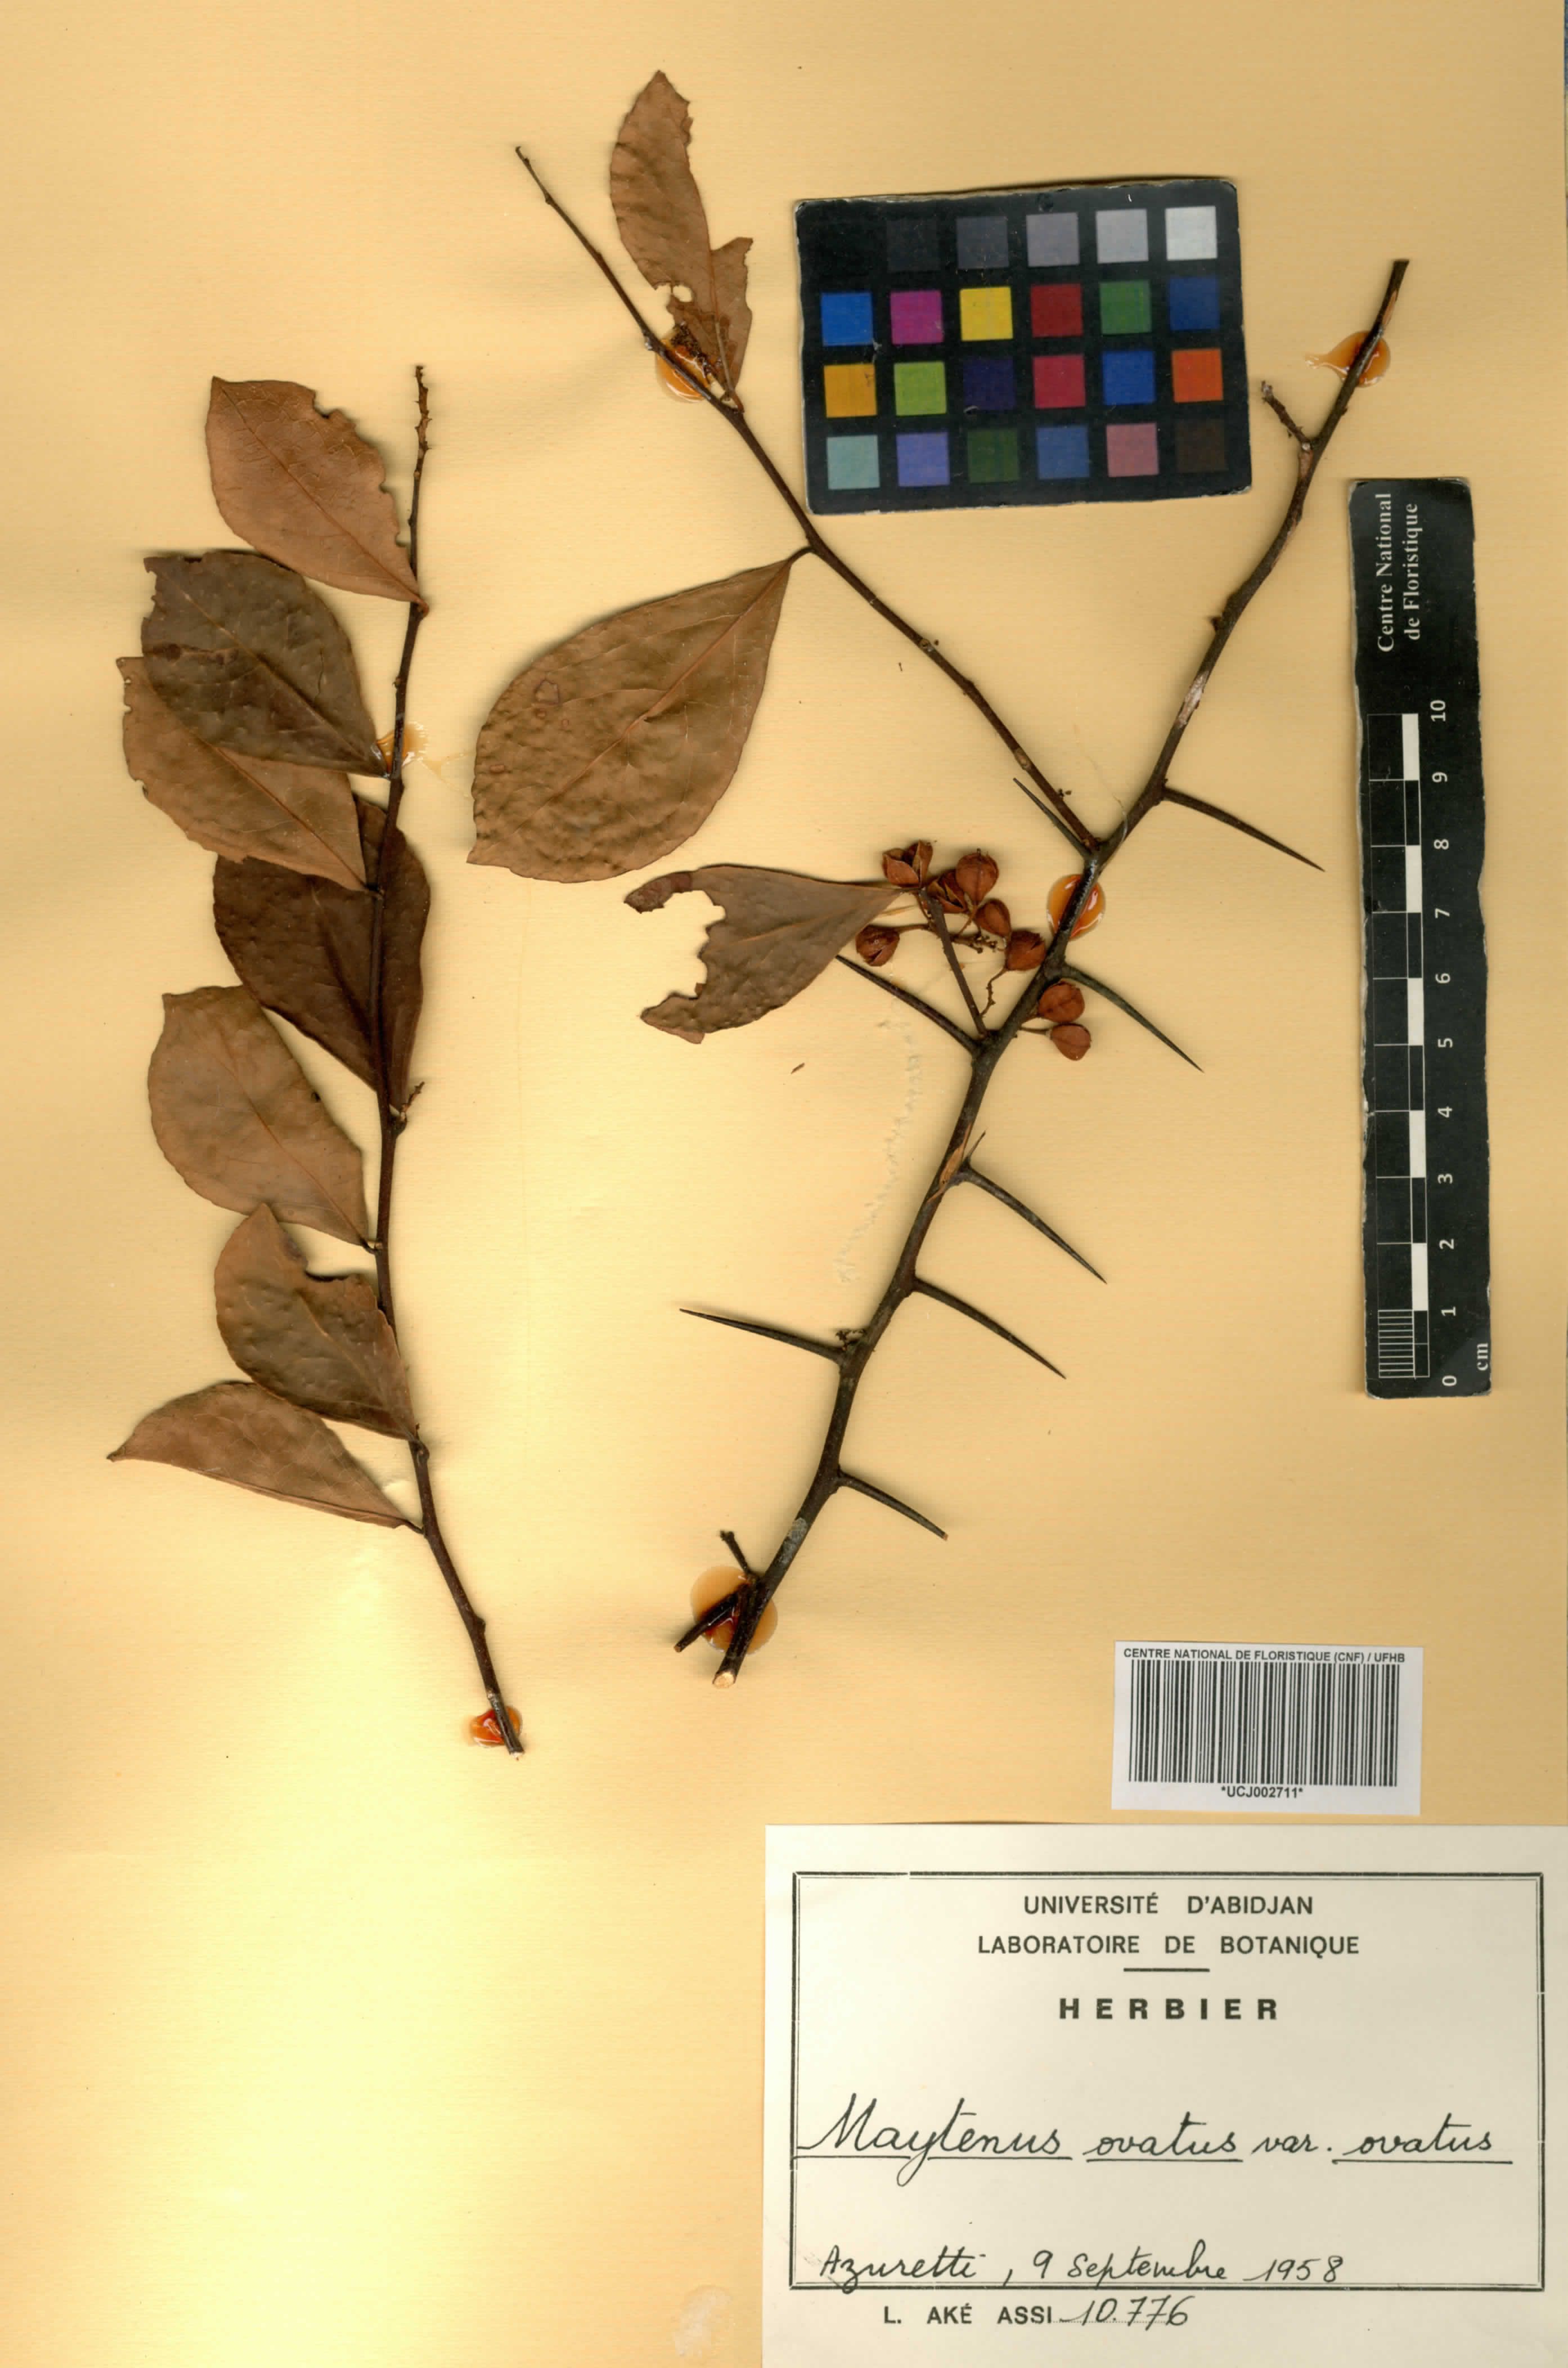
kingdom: Plantae
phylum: Tracheophyta
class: Magnoliopsida
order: Celastrales
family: Celastraceae
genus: Gymnosporia
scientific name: Gymnosporia buchananii
